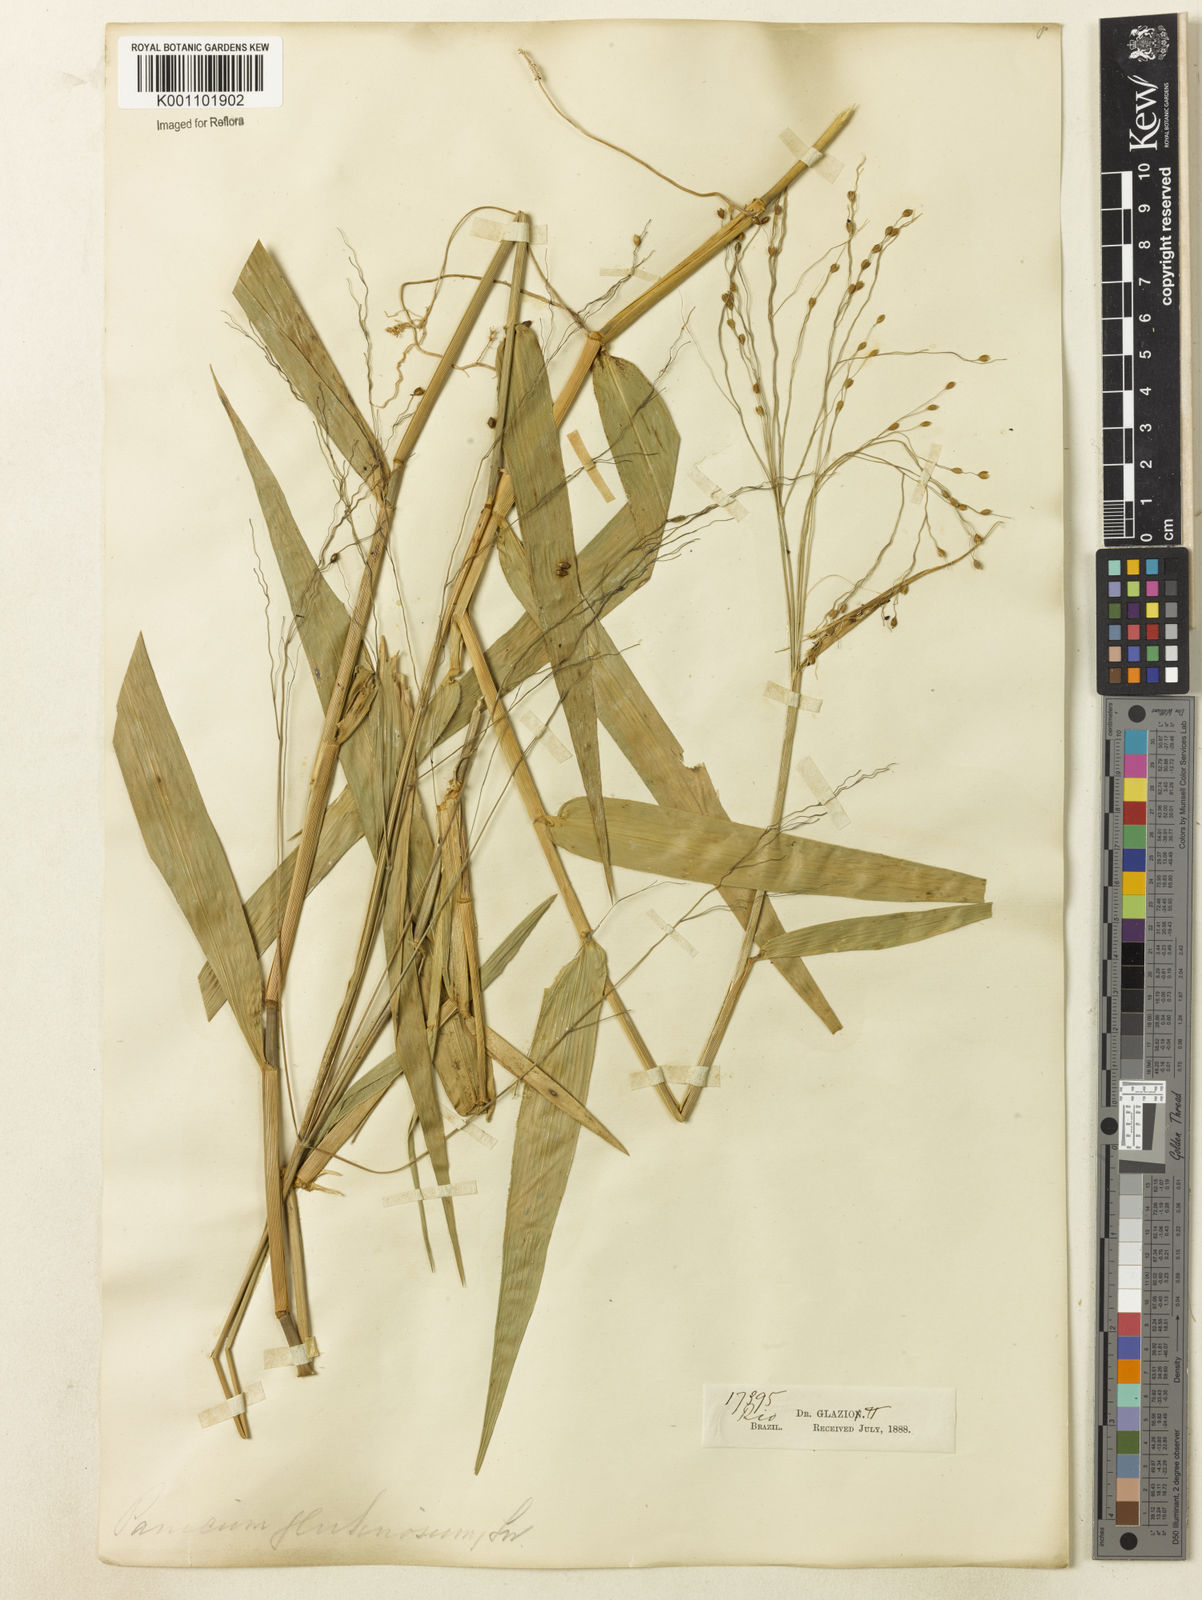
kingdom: Plantae
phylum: Tracheophyta
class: Liliopsida
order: Poales
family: Poaceae
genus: Homolepis
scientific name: Homolepis glutinosa
